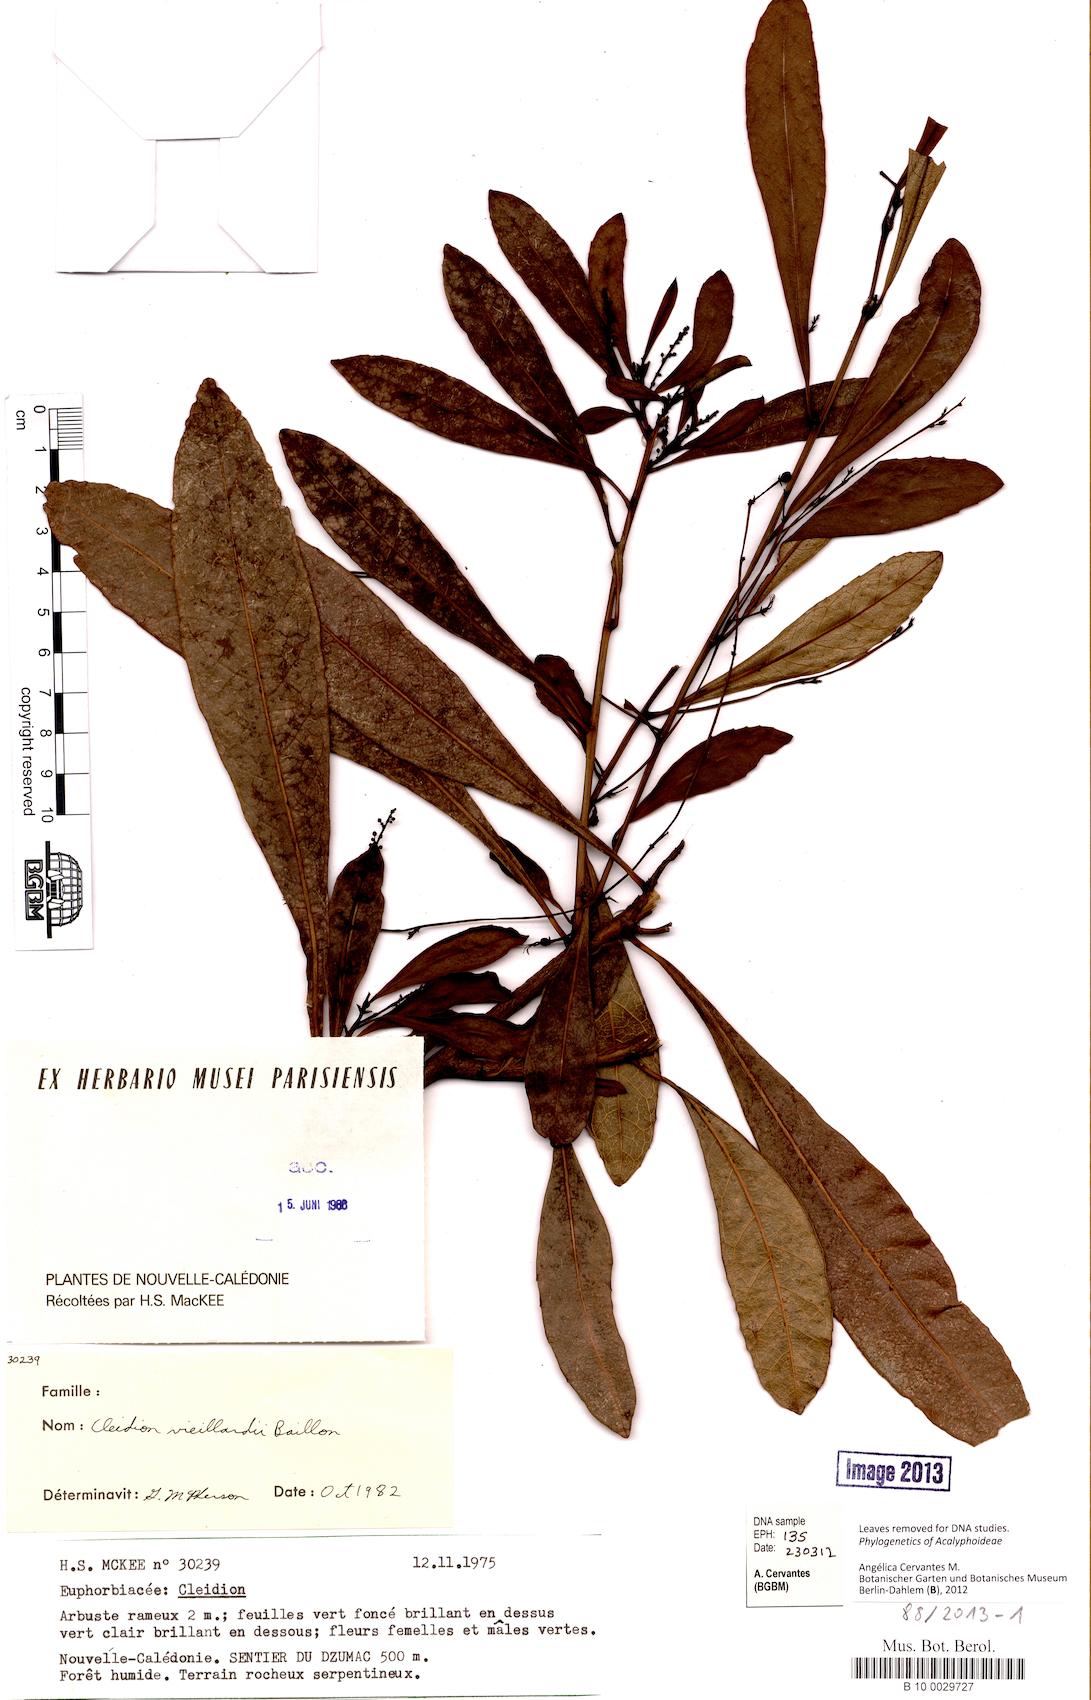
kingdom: Plantae
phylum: Tracheophyta
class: Magnoliopsida
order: Malpighiales
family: Euphorbiaceae
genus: Cleidion
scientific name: Cleidion vieillardii
